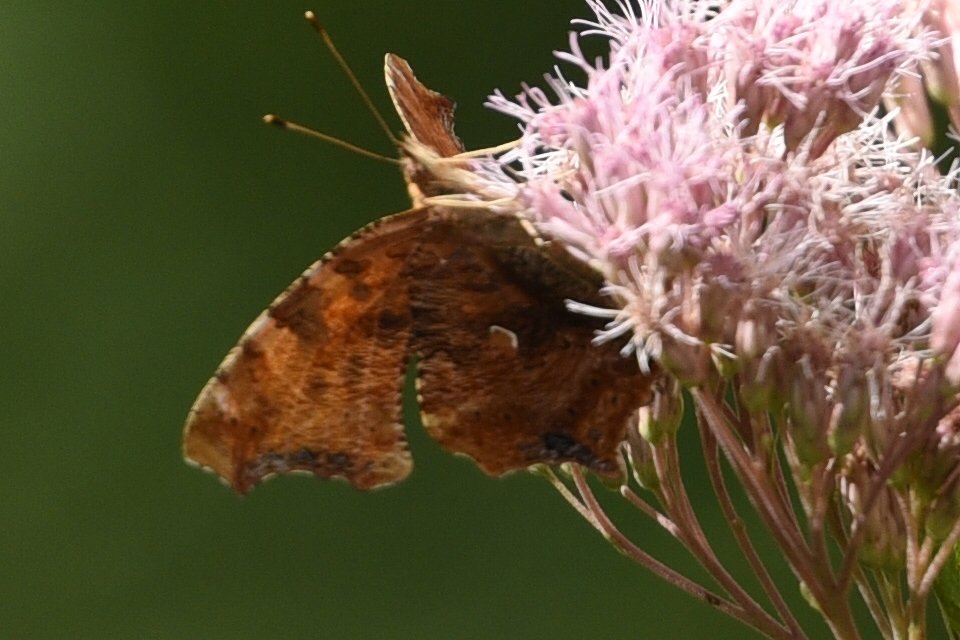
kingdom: Animalia
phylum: Arthropoda
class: Insecta
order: Lepidoptera
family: Nymphalidae
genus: Polygonia
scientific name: Polygonia comma
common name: Eastern Comma
